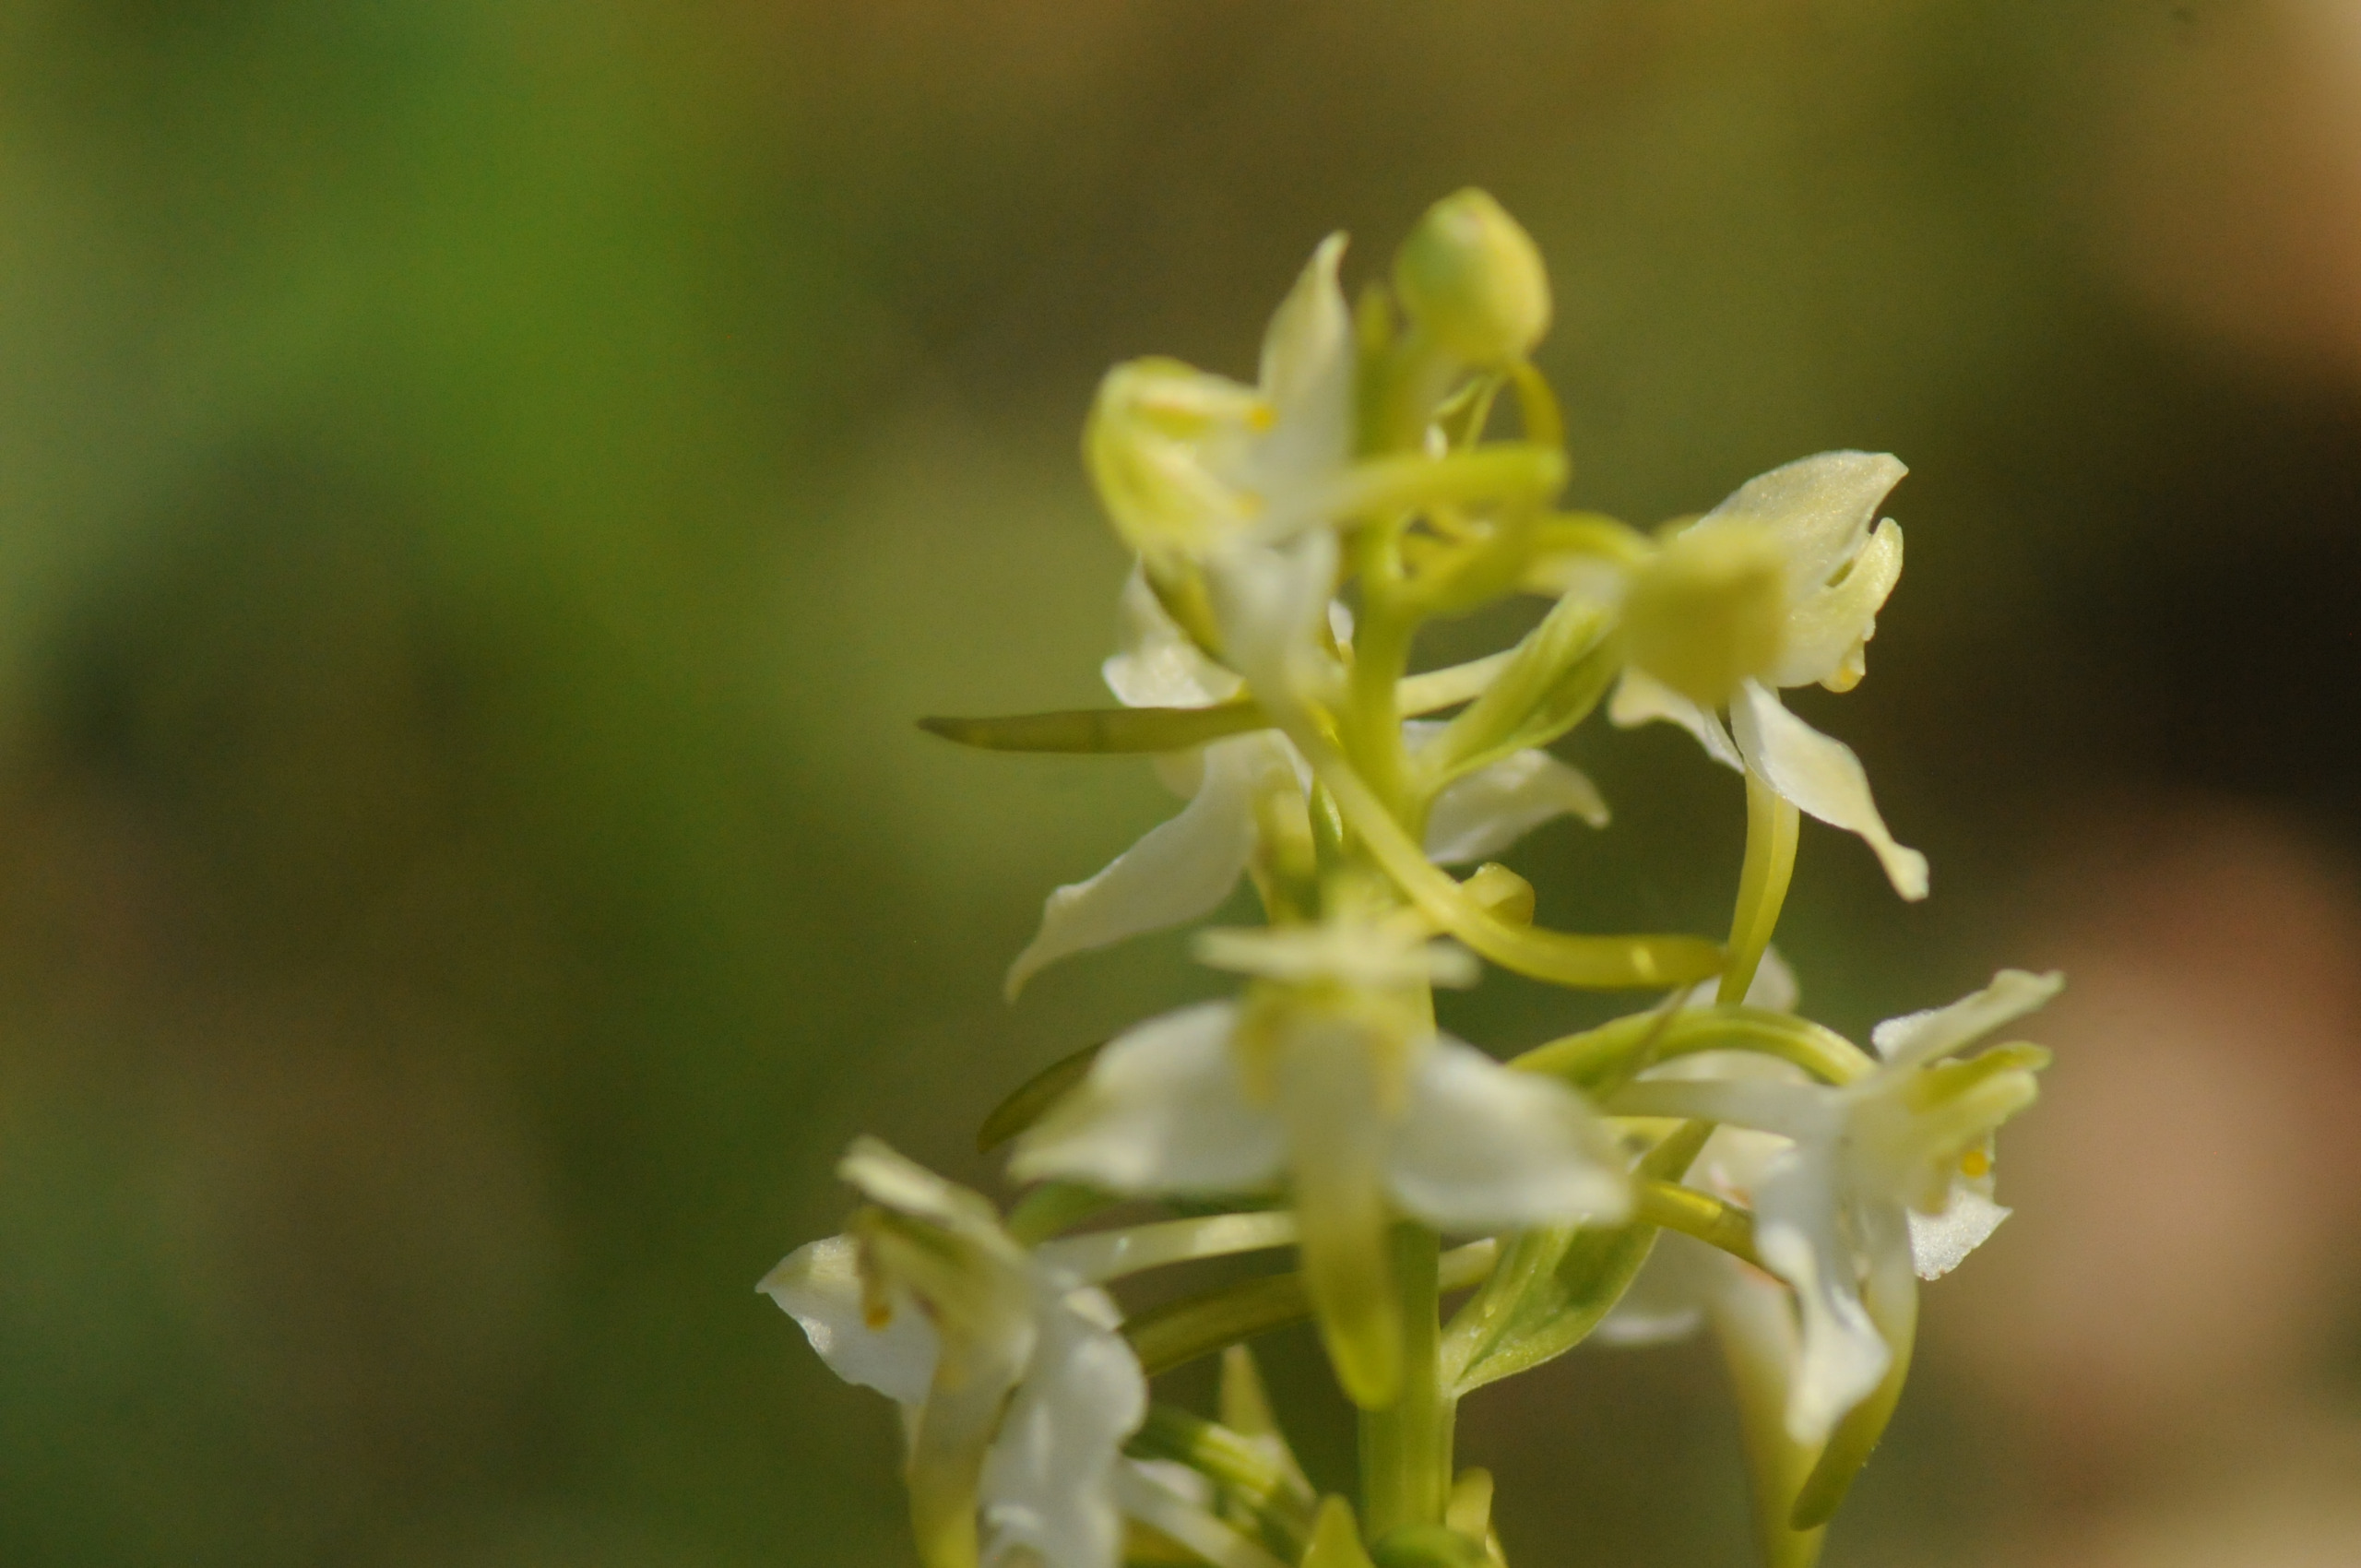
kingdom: Plantae
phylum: Tracheophyta
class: Liliopsida
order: Asparagales
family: Orchidaceae
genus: Platanthera
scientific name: Platanthera chlorantha
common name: Skov-gøgelilje
